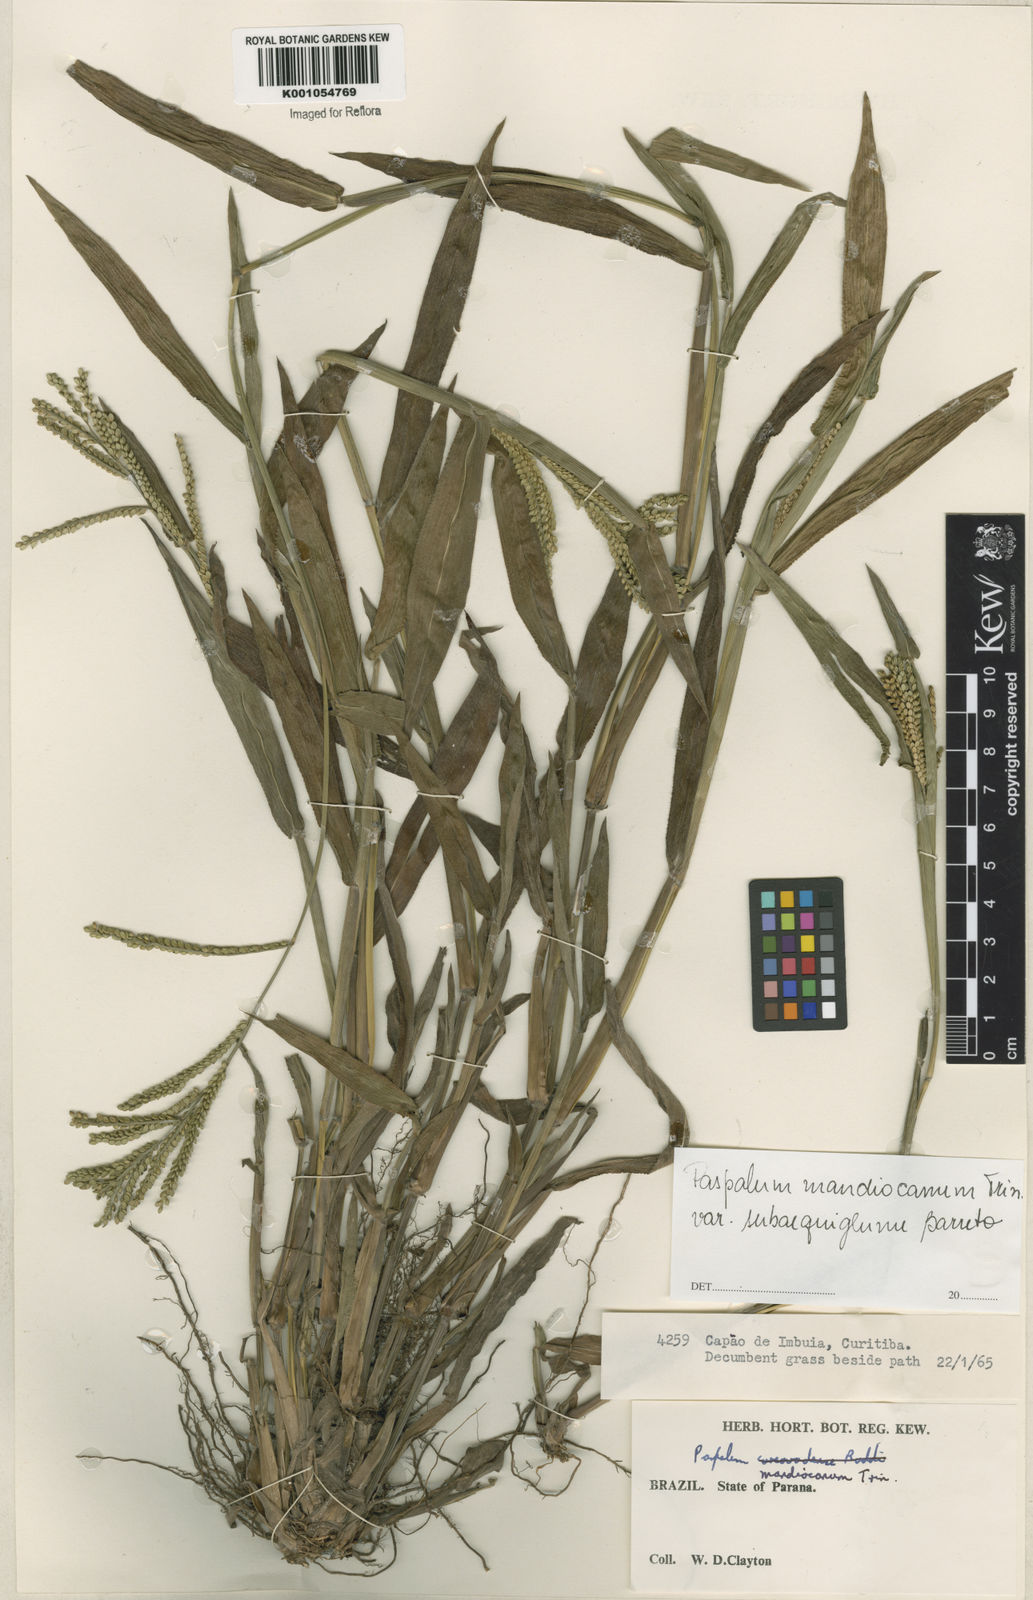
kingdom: Plantae
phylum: Tracheophyta
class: Liliopsida
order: Poales
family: Poaceae
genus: Paspalum
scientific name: Paspalum mandiocanum
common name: Paspalum
